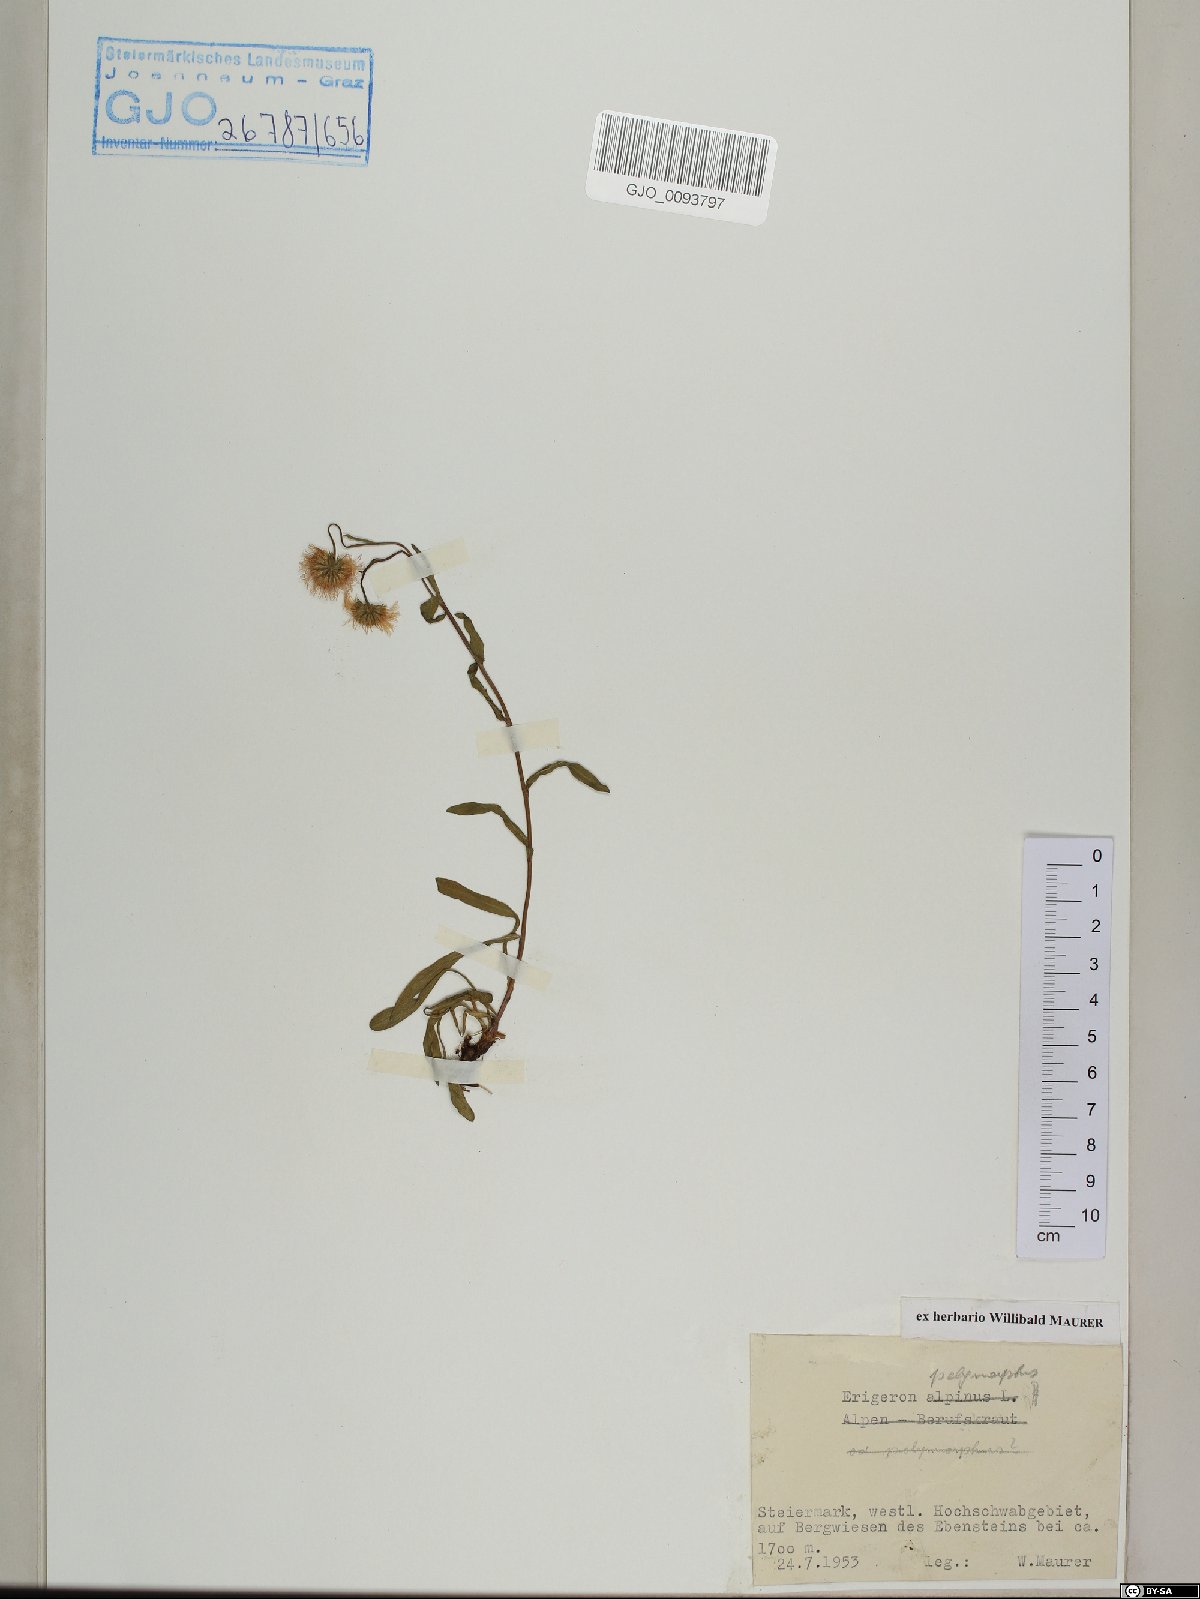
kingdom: Plantae
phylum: Tracheophyta
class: Magnoliopsida
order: Asterales
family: Asteraceae
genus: Erigeron
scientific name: Erigeron alpinus
